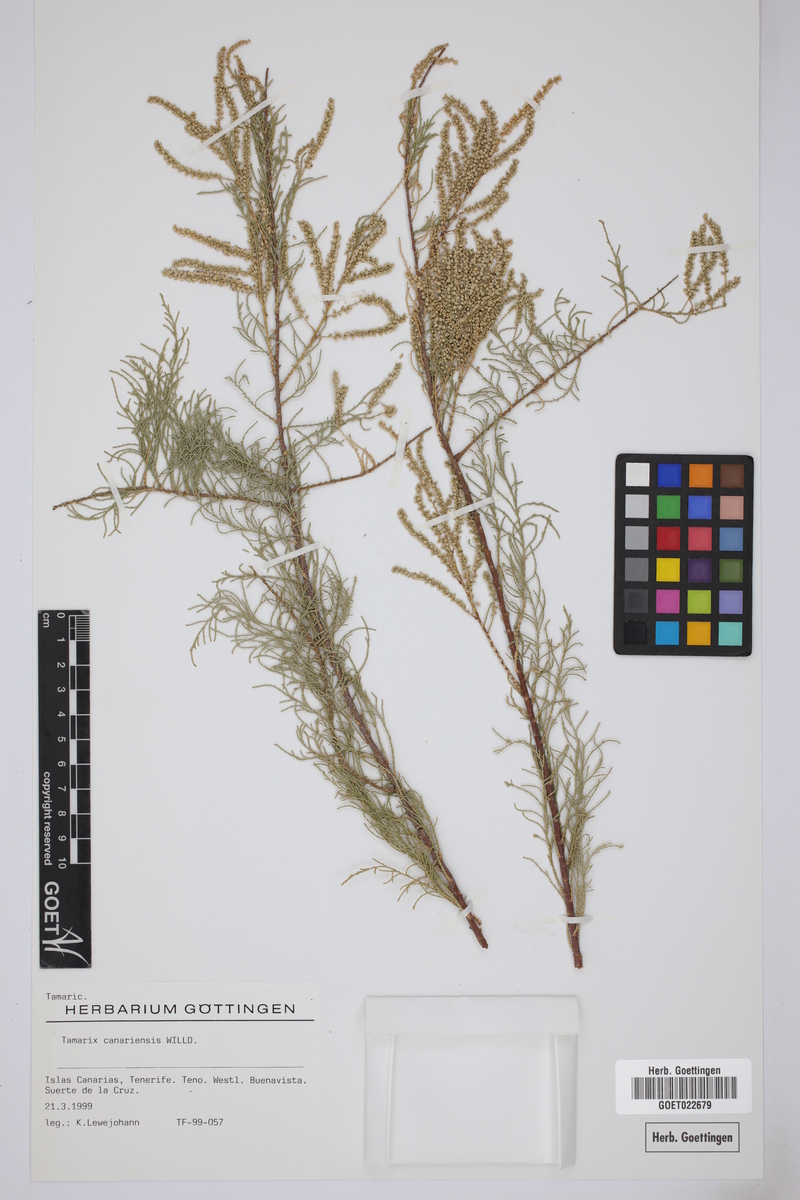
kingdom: Plantae
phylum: Tracheophyta
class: Magnoliopsida
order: Caryophyllales
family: Tamaricaceae
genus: Tamarix
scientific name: Tamarix africana
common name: African tamarisk
